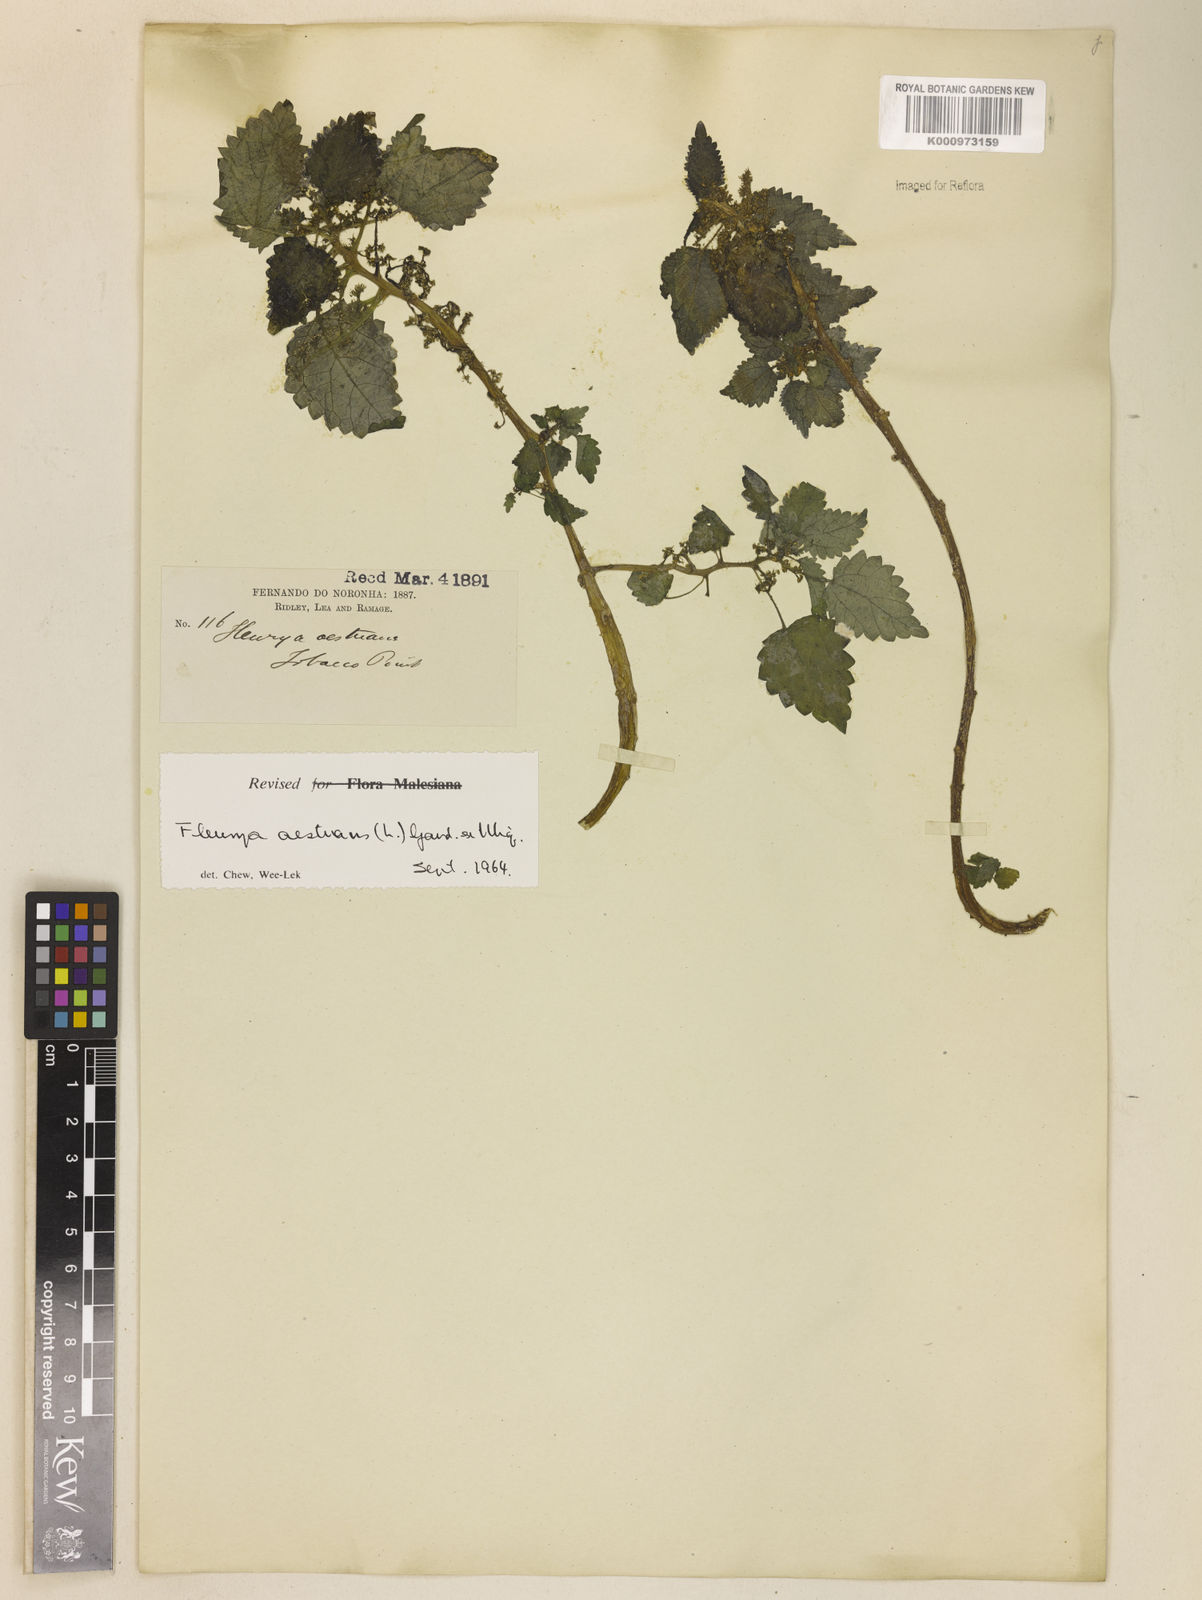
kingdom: Plantae
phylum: Tracheophyta
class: Magnoliopsida
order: Rosales
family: Urticaceae
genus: Laportea
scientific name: Laportea aestuans
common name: West indian woodnettle
